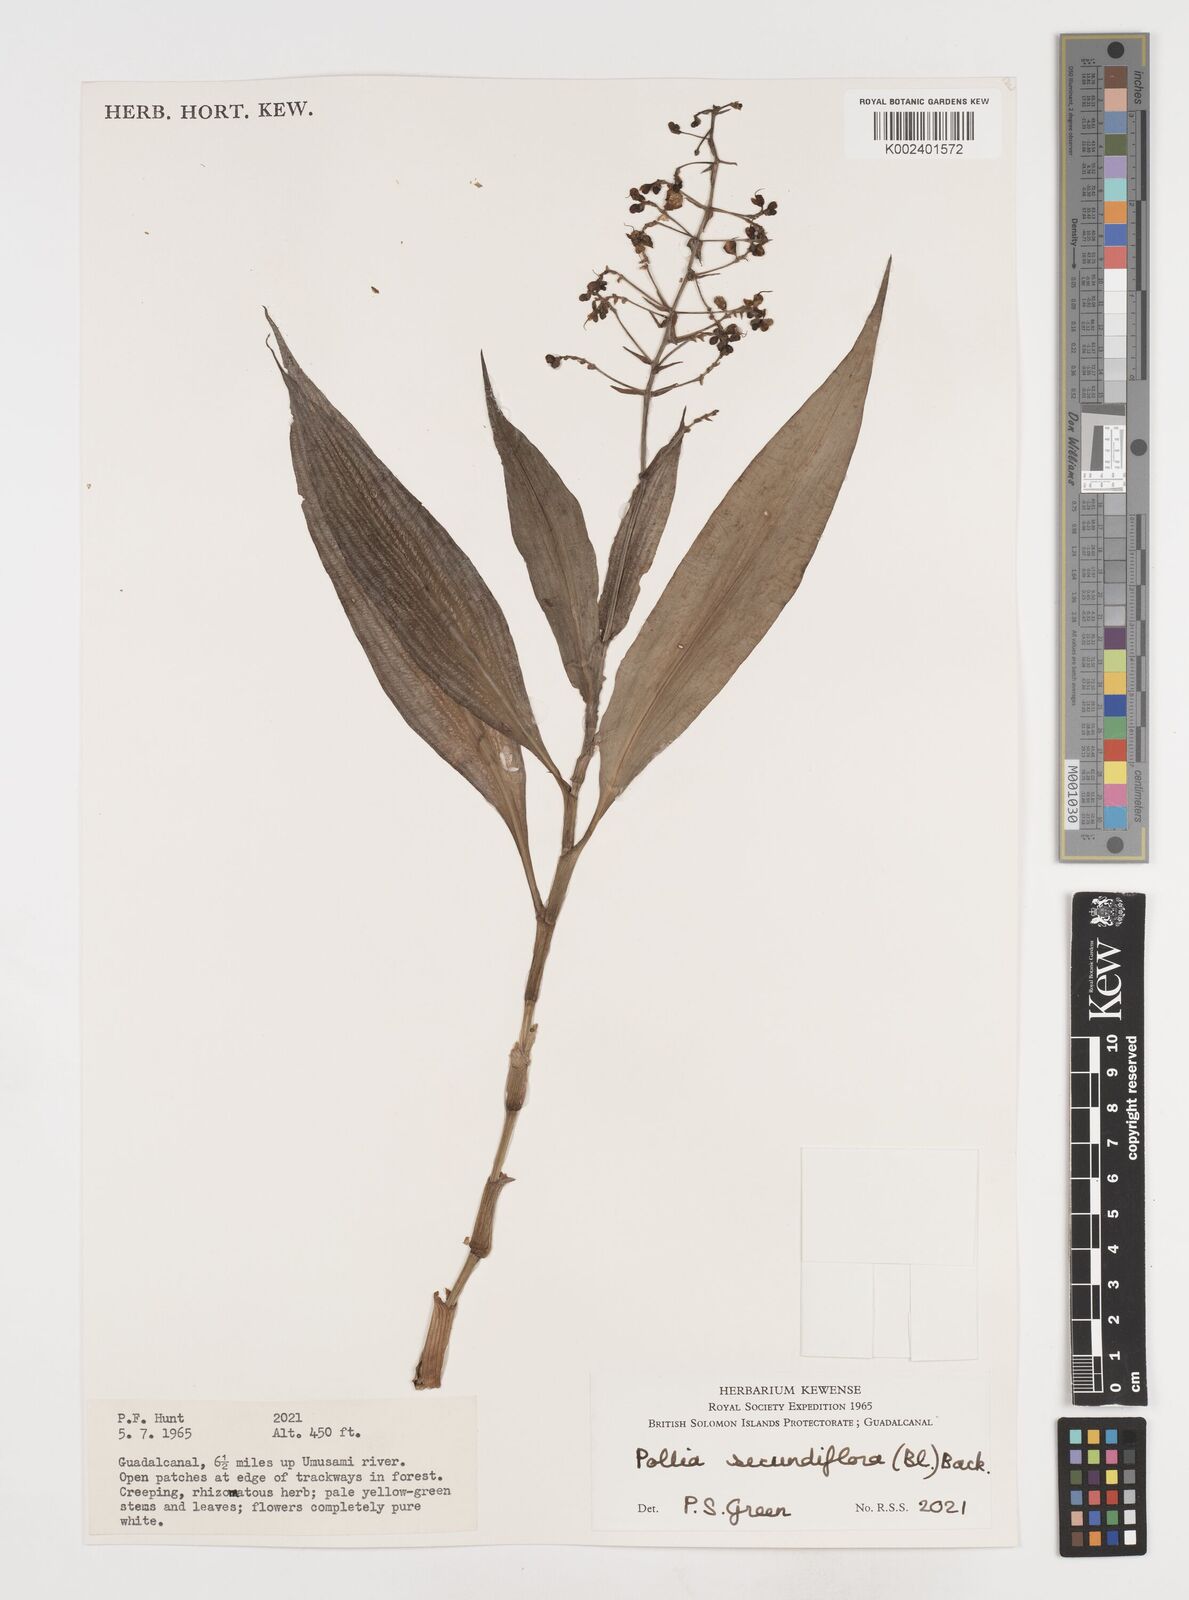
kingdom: Plantae
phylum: Tracheophyta
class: Liliopsida
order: Commelinales
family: Commelinaceae
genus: Pollia
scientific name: Pollia secundiflora
